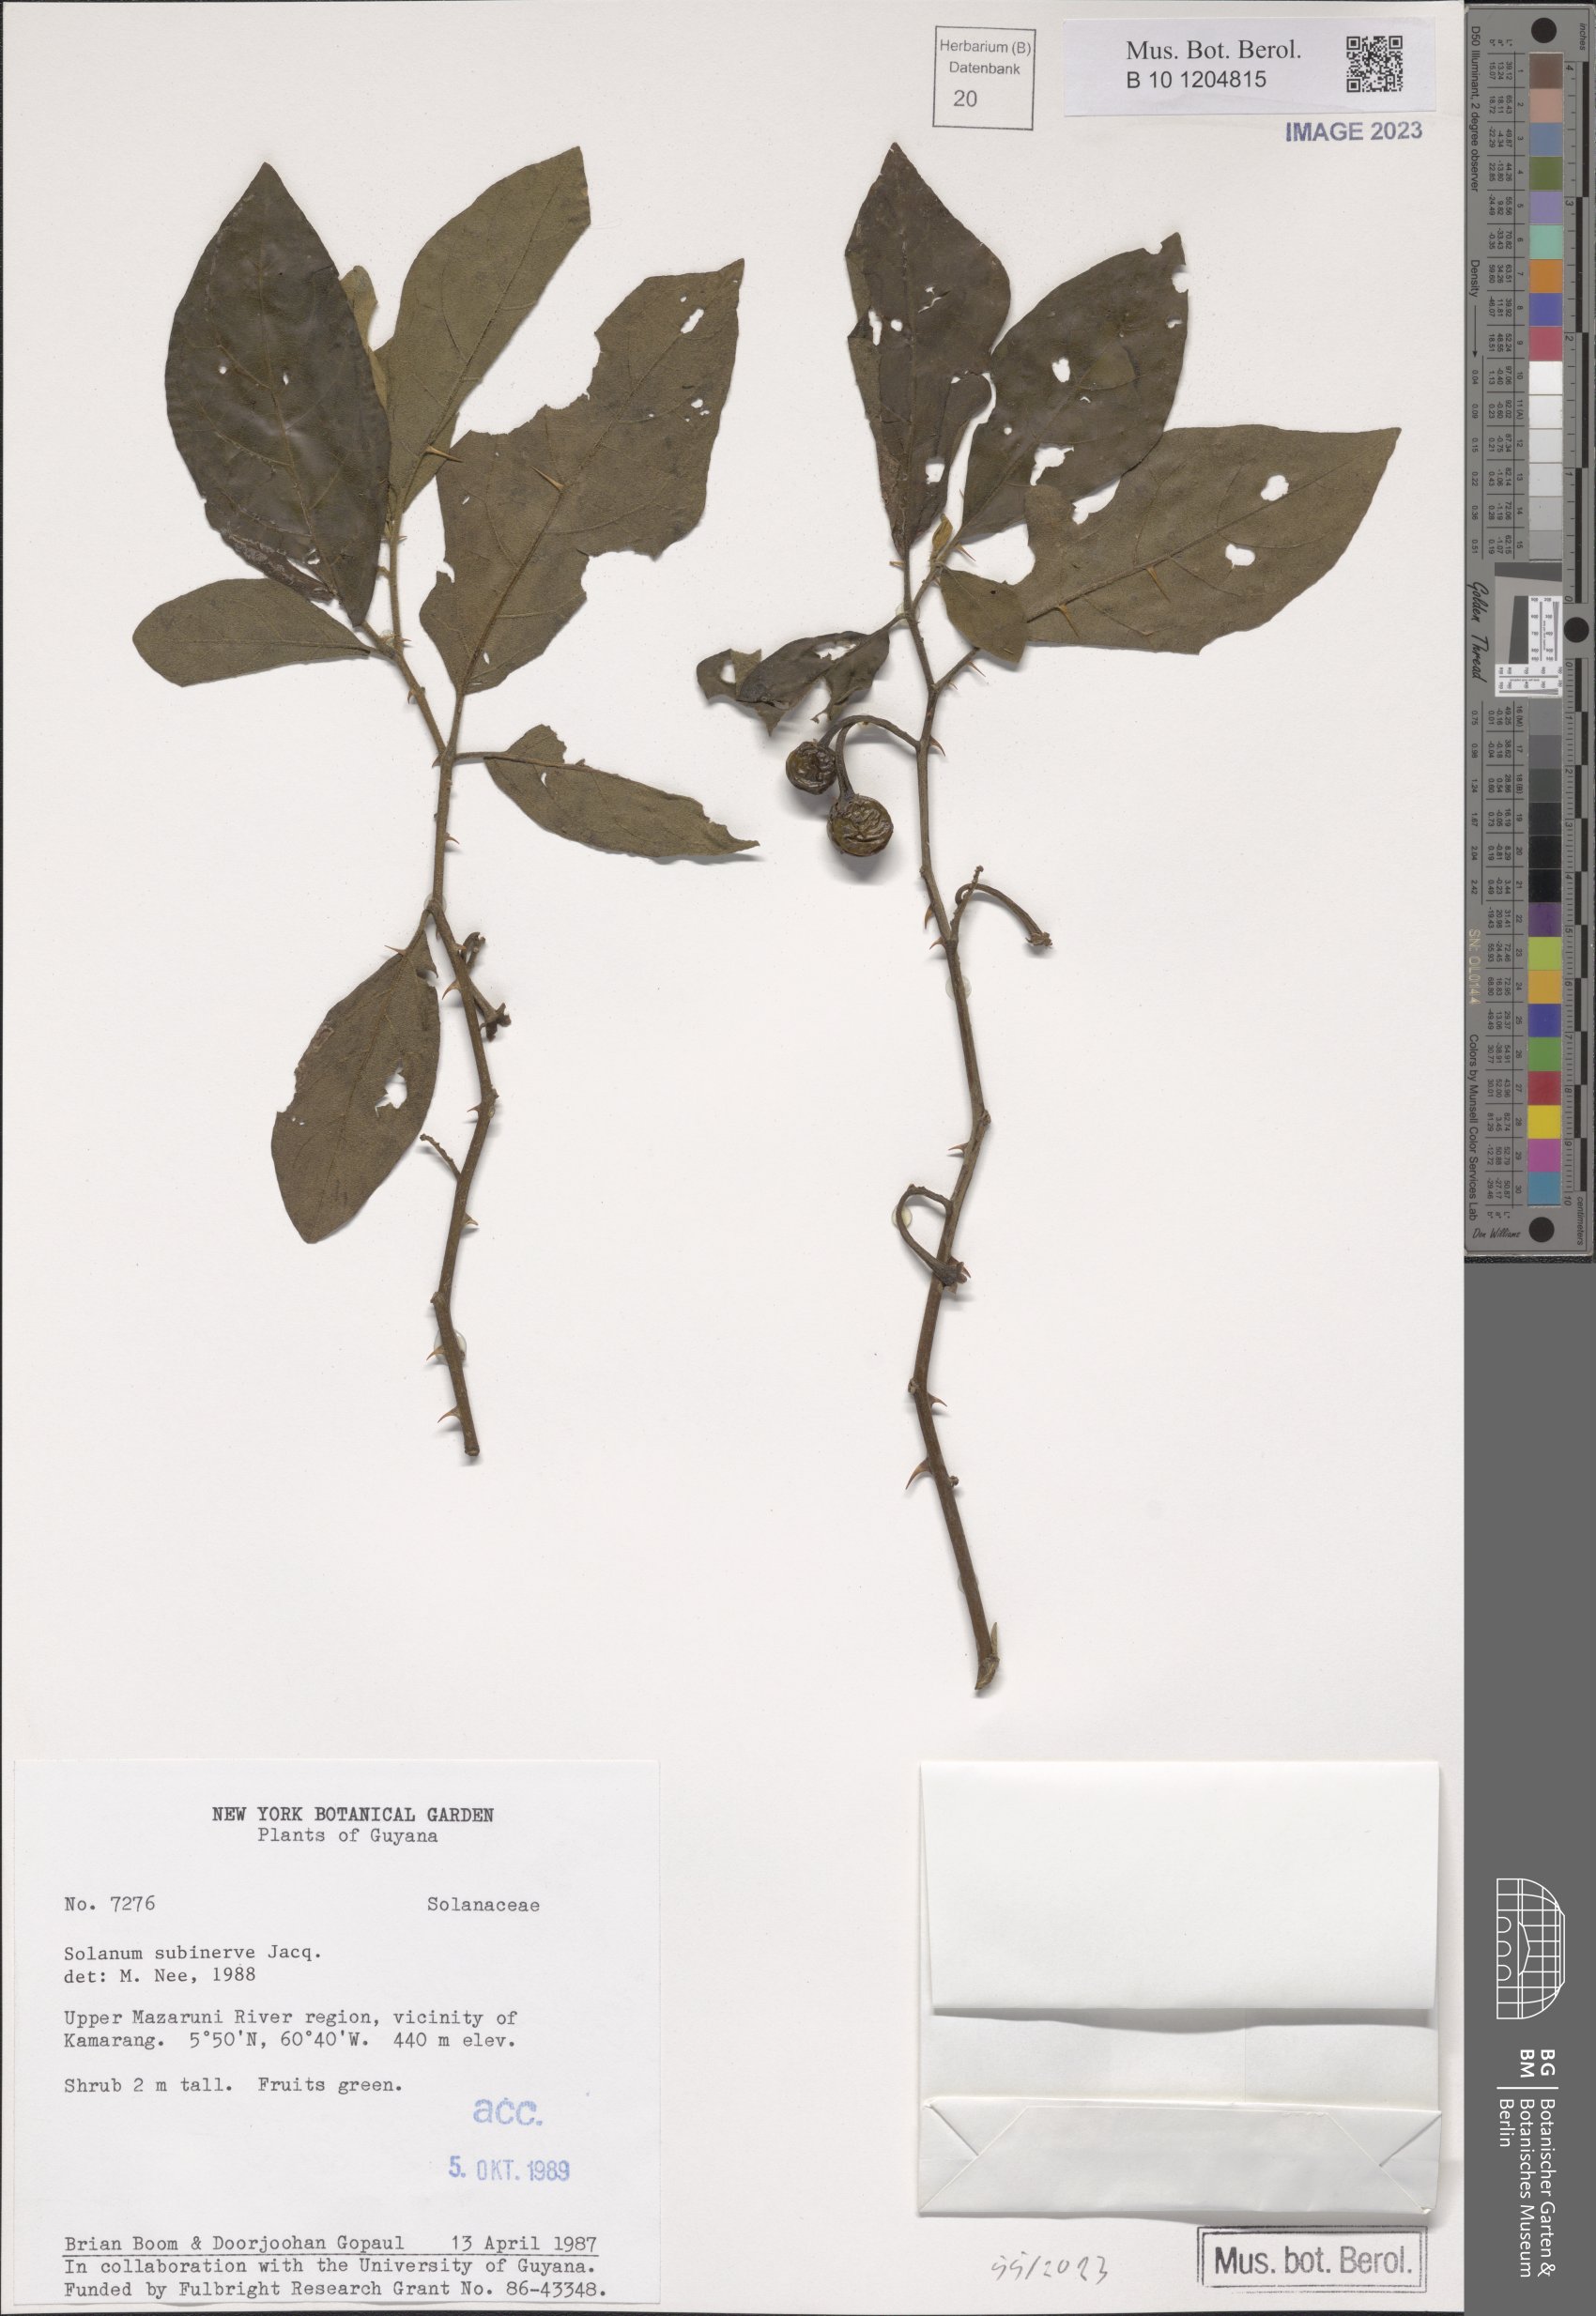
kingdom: Plantae
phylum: Tracheophyta
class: Magnoliopsida
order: Solanales
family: Solanaceae
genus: Solanum
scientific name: Solanum subinerme
